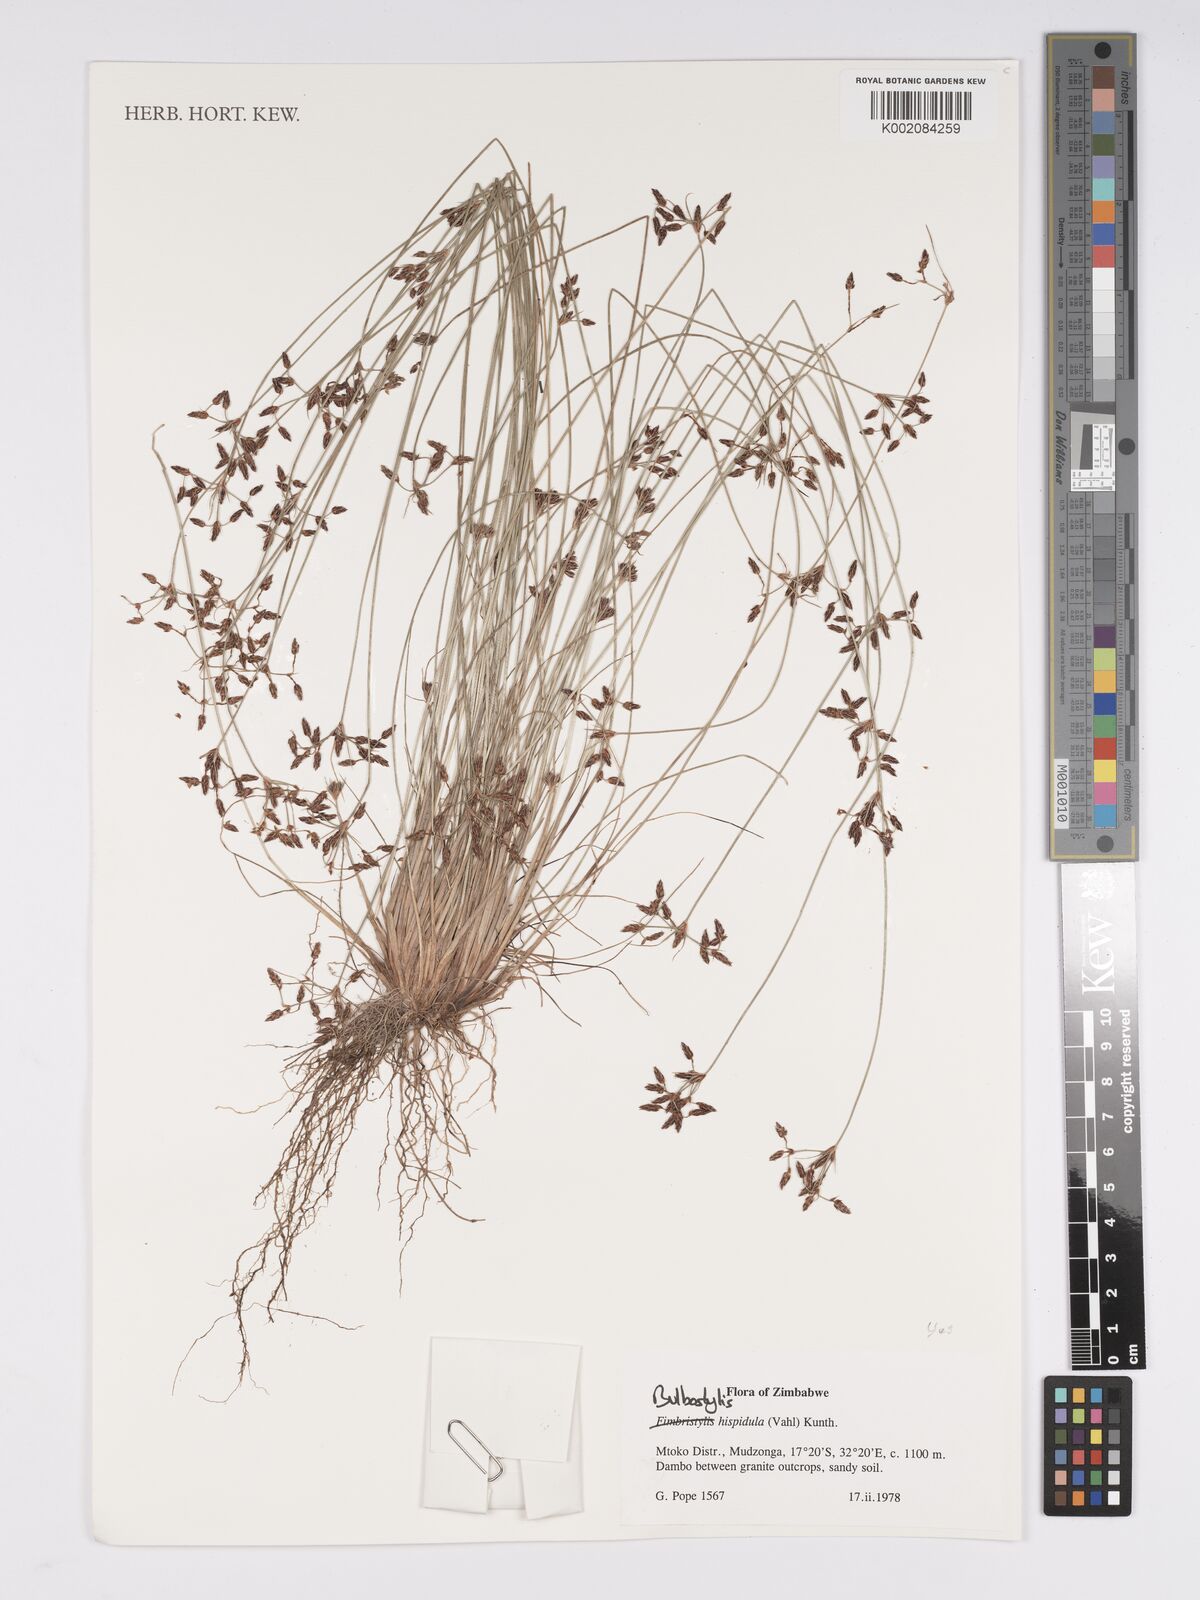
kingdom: Plantae
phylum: Tracheophyta
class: Liliopsida
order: Poales
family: Cyperaceae
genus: Bulbostylis
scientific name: Bulbostylis
